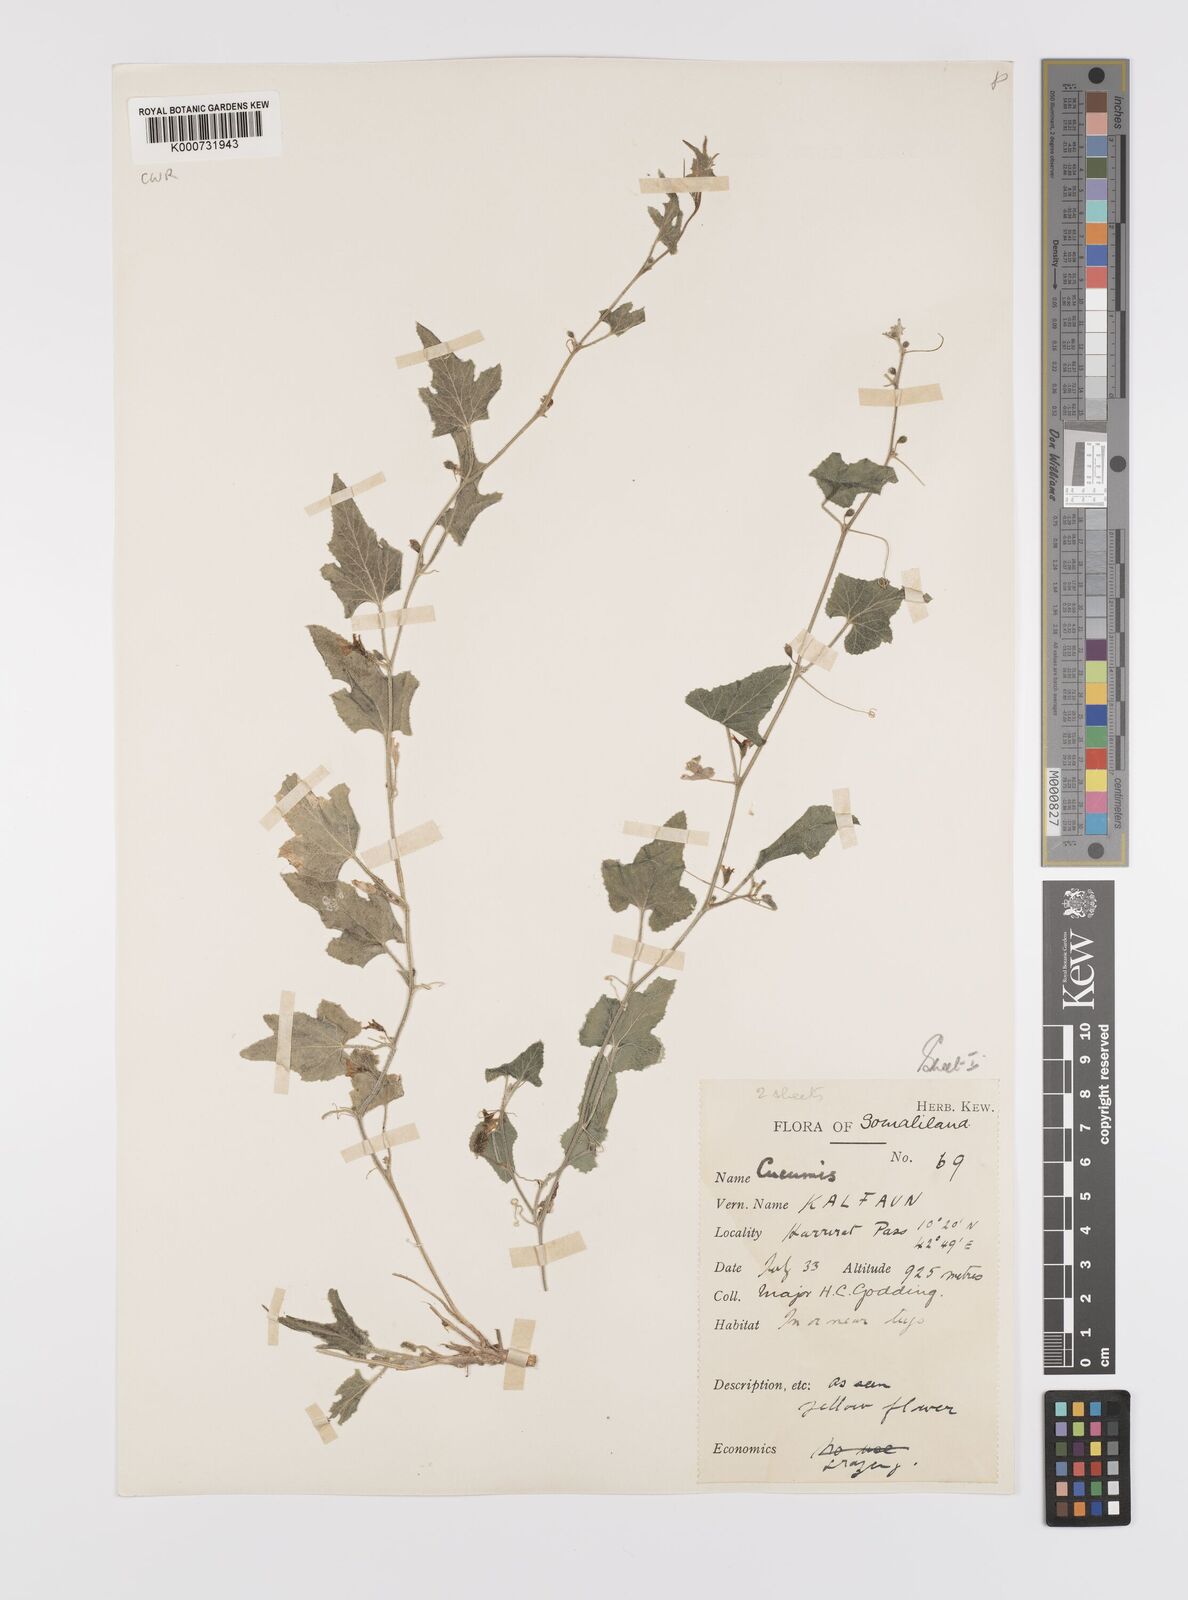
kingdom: Plantae
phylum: Tracheophyta
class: Magnoliopsida
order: Cucurbitales
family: Cucurbitaceae
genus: Cucumis
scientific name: Cucumis
